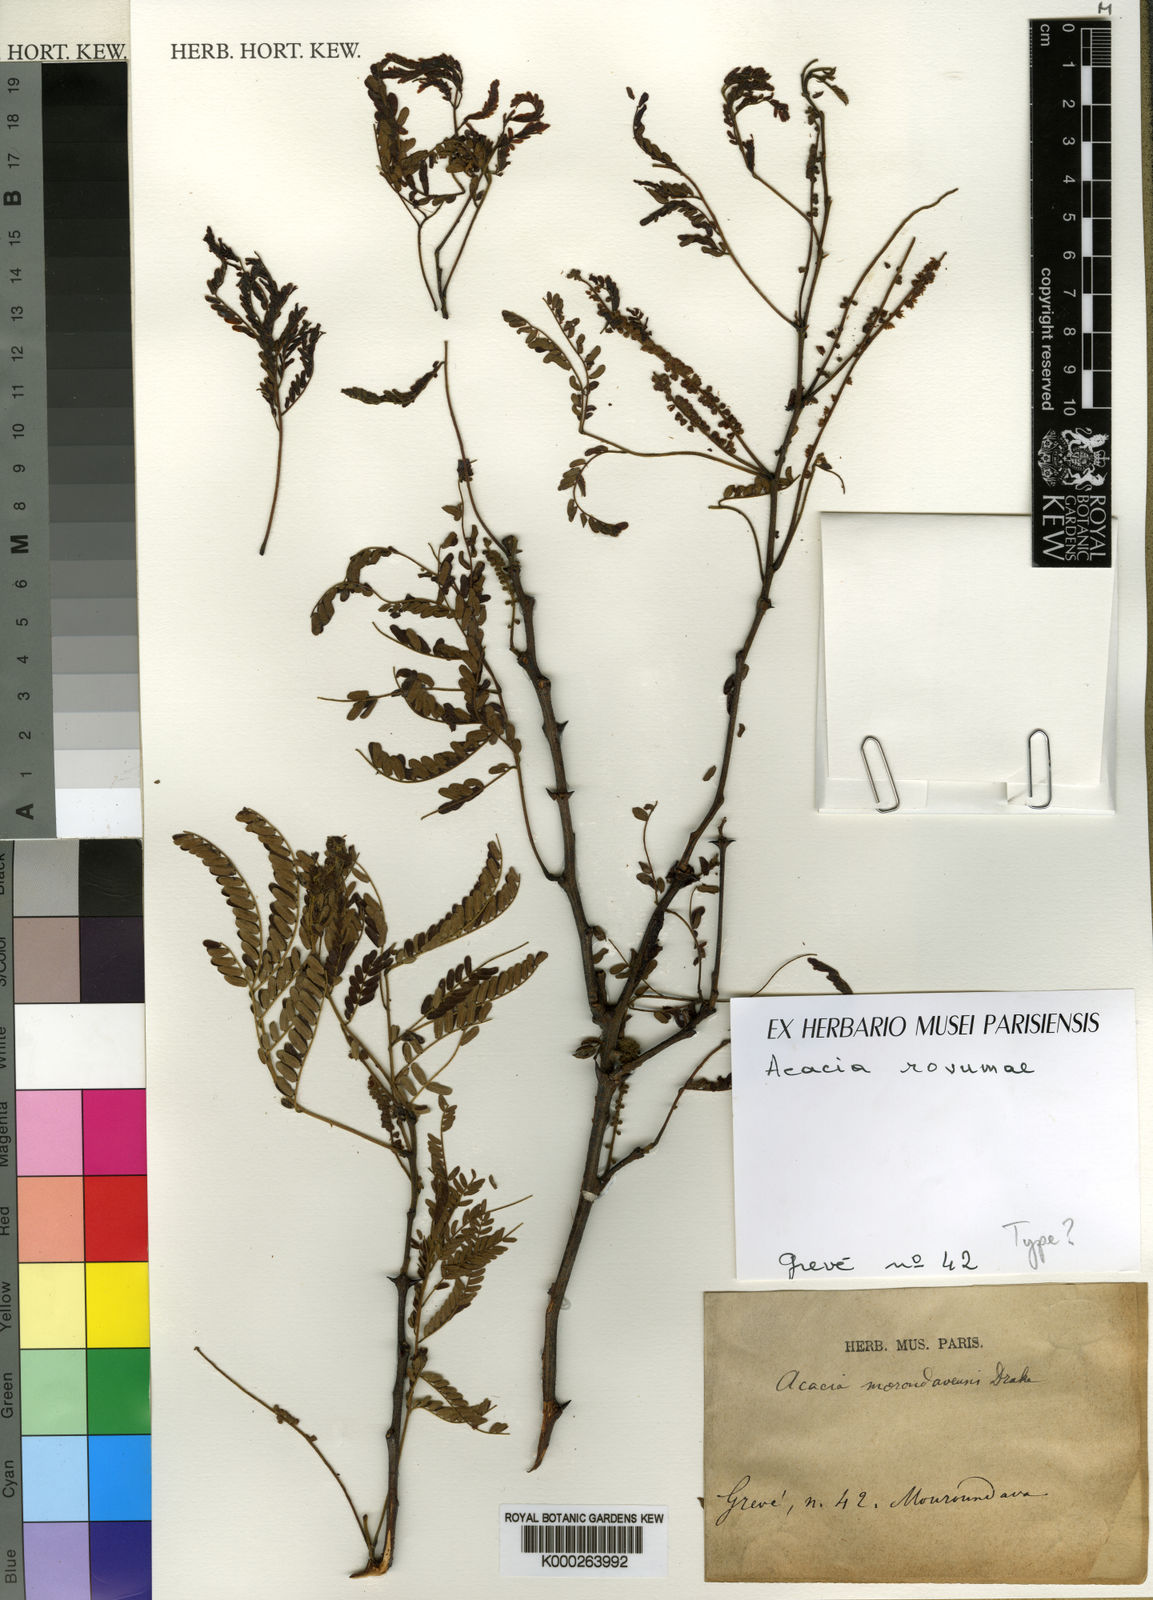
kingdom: Plantae
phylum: Tracheophyta
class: Magnoliopsida
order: Fabales
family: Fabaceae
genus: Senegalia
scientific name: Senegalia rovumae
